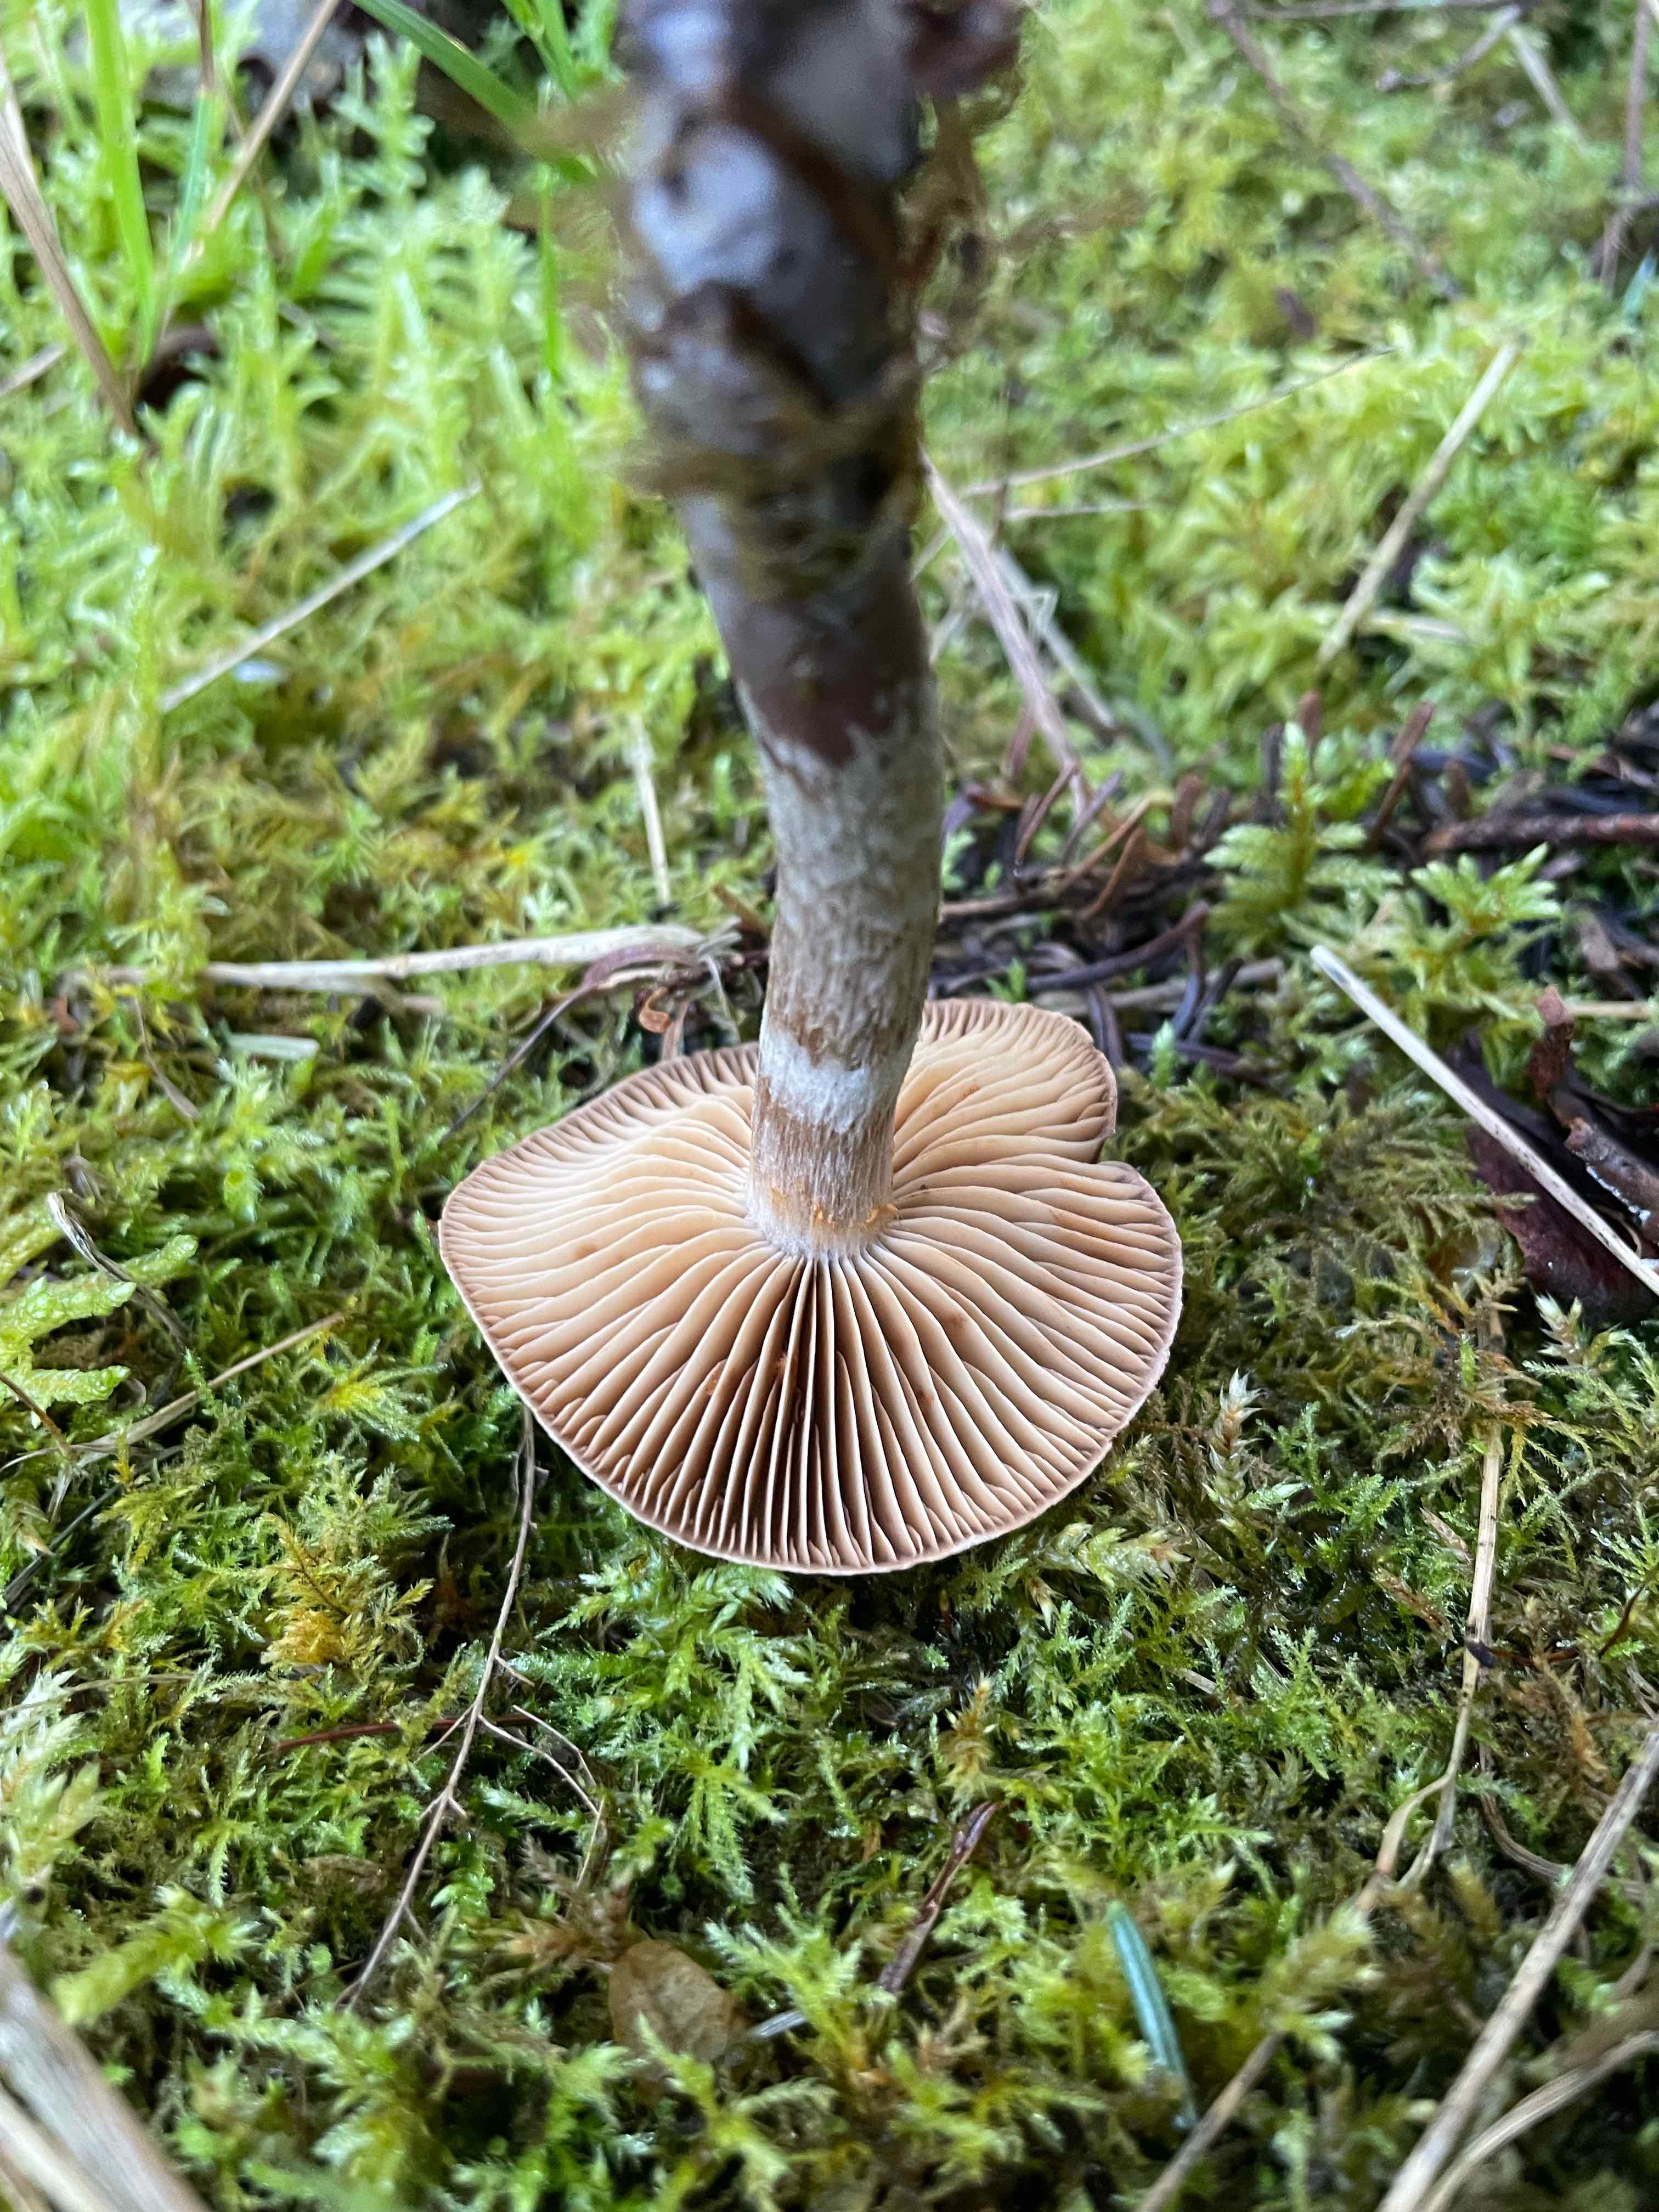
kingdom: Fungi
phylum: Basidiomycota
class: Agaricomycetes
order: Agaricales
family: Cortinariaceae
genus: Cortinarius
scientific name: Cortinarius
